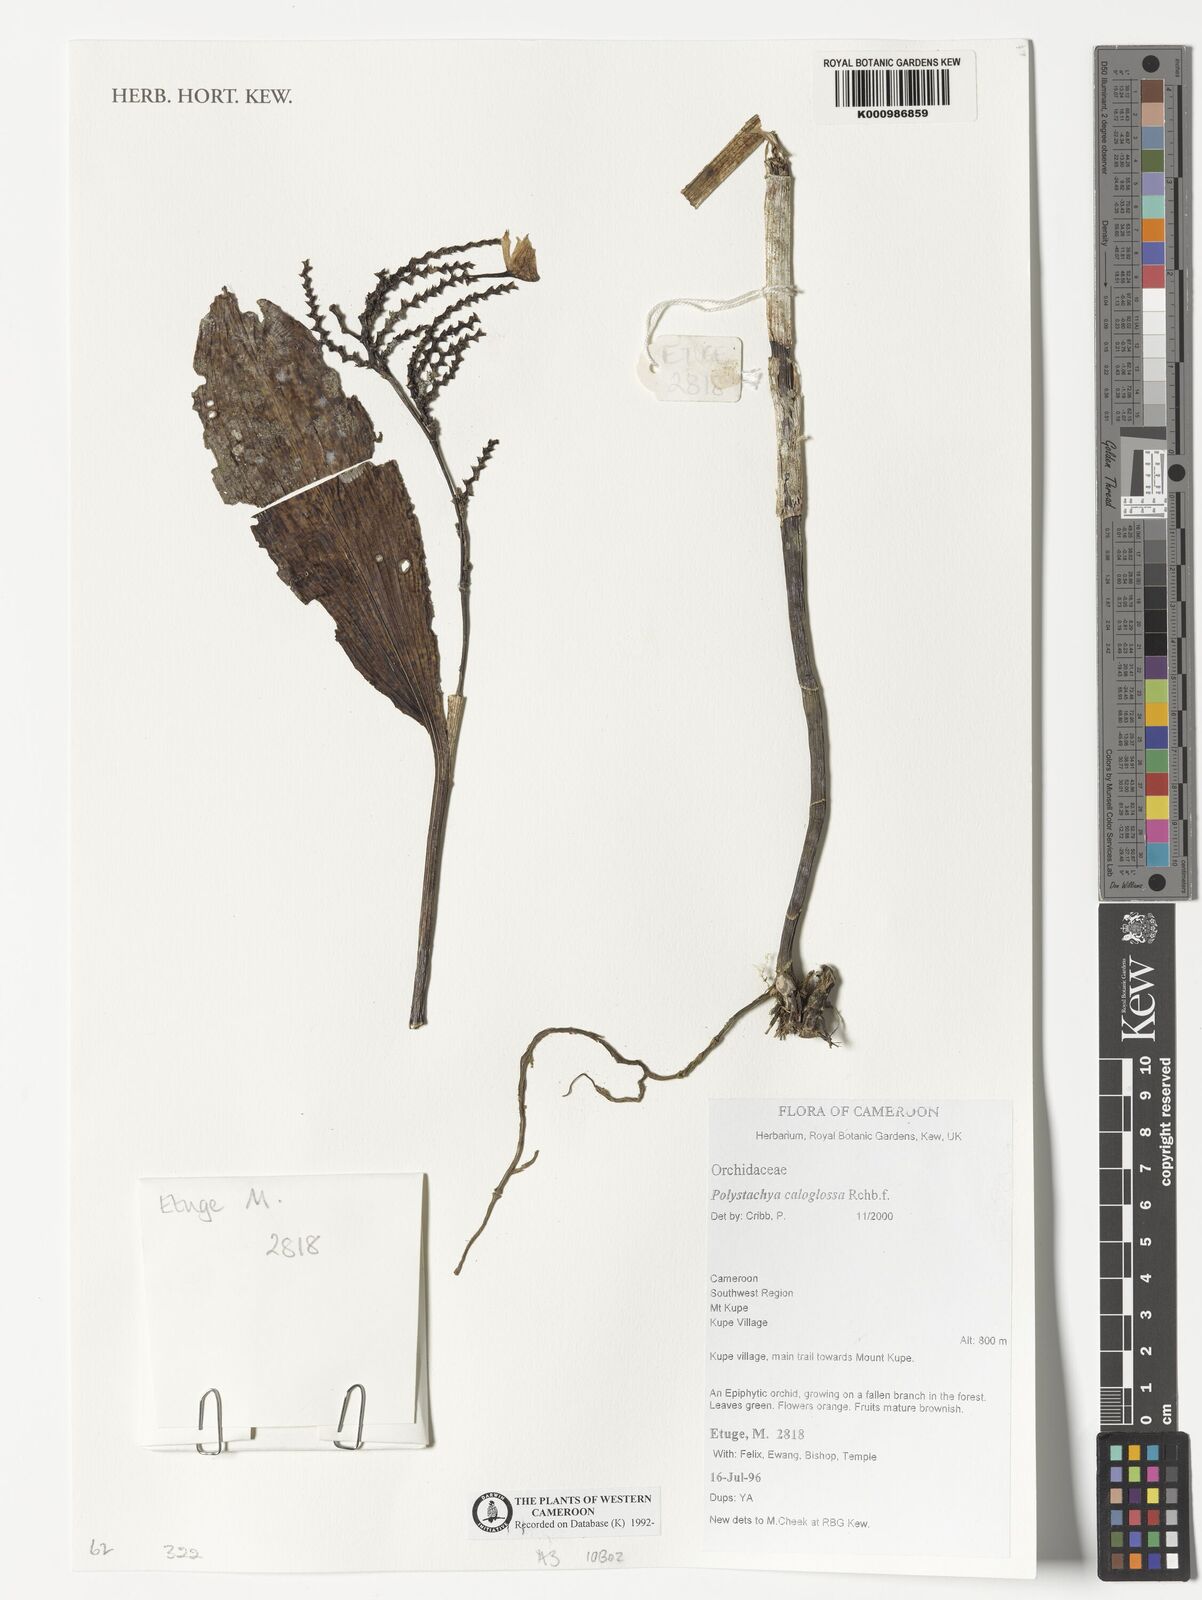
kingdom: Plantae
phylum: Tracheophyta
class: Liliopsida
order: Asparagales
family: Orchidaceae
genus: Polystachya
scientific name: Polystachya caloglossa
